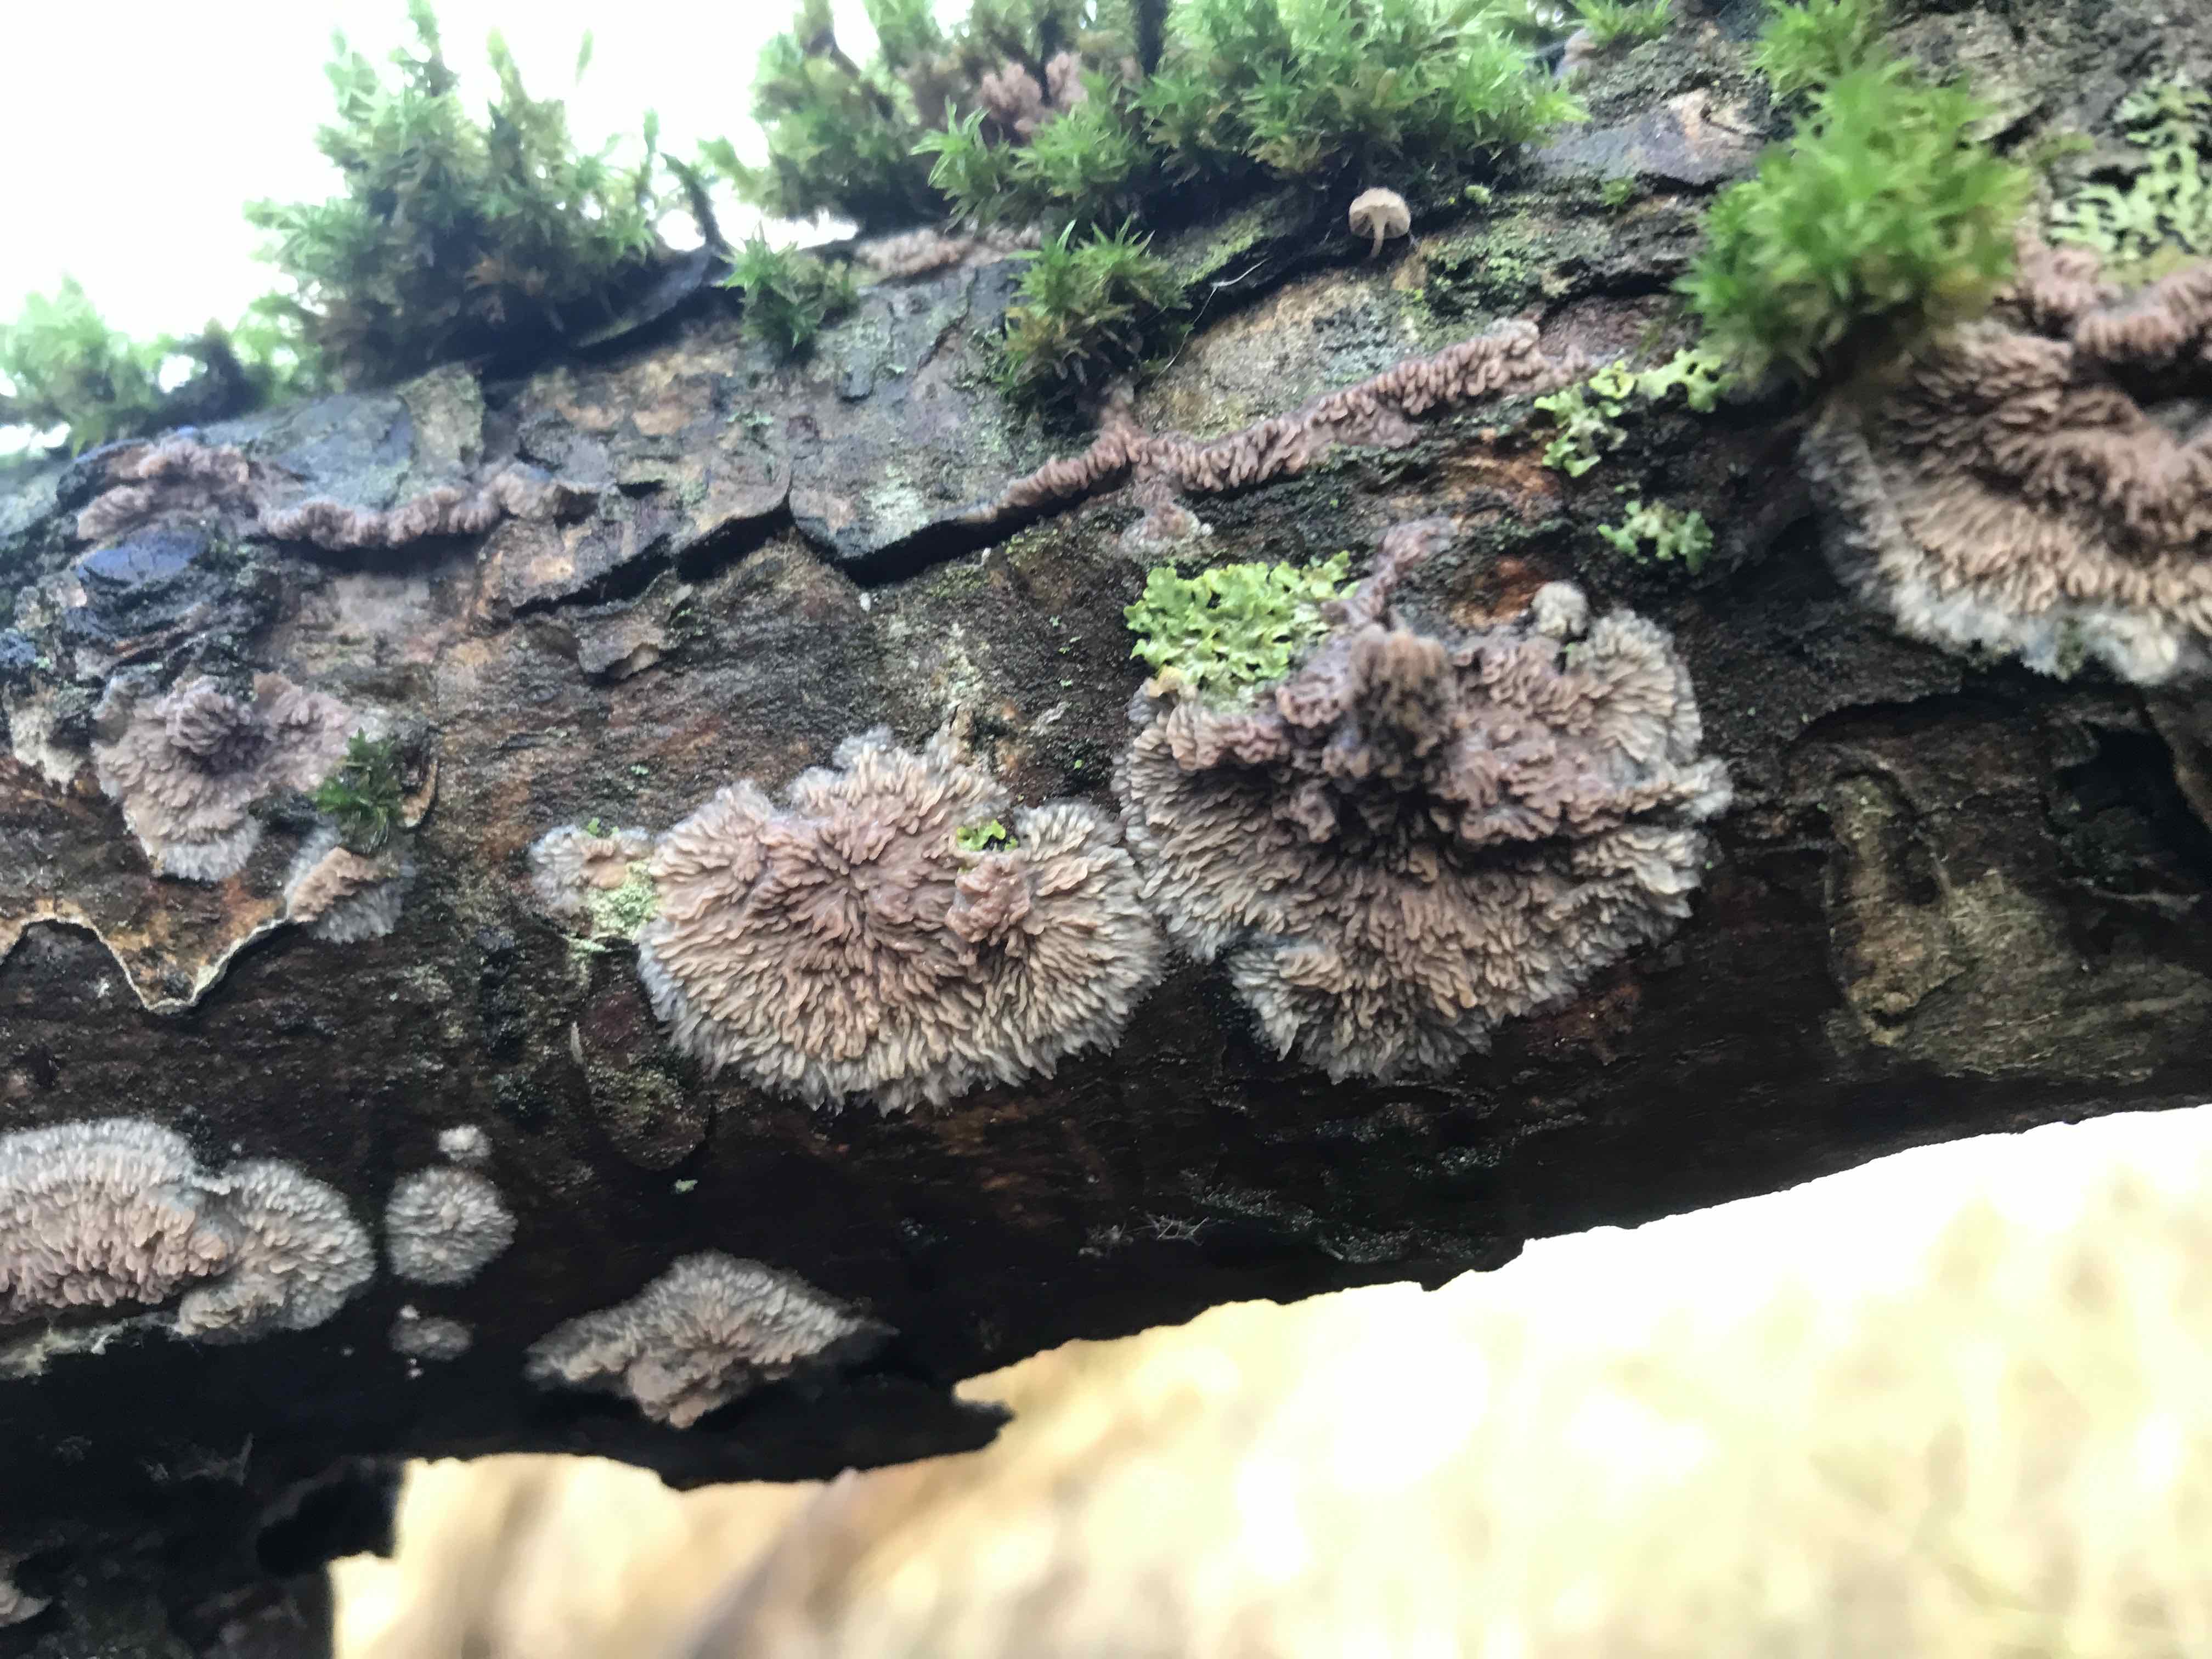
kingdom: Fungi
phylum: Basidiomycota
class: Agaricomycetes
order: Polyporales
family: Meruliaceae
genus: Phlebia
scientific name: Phlebia radiata
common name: stråle-åresvamp
